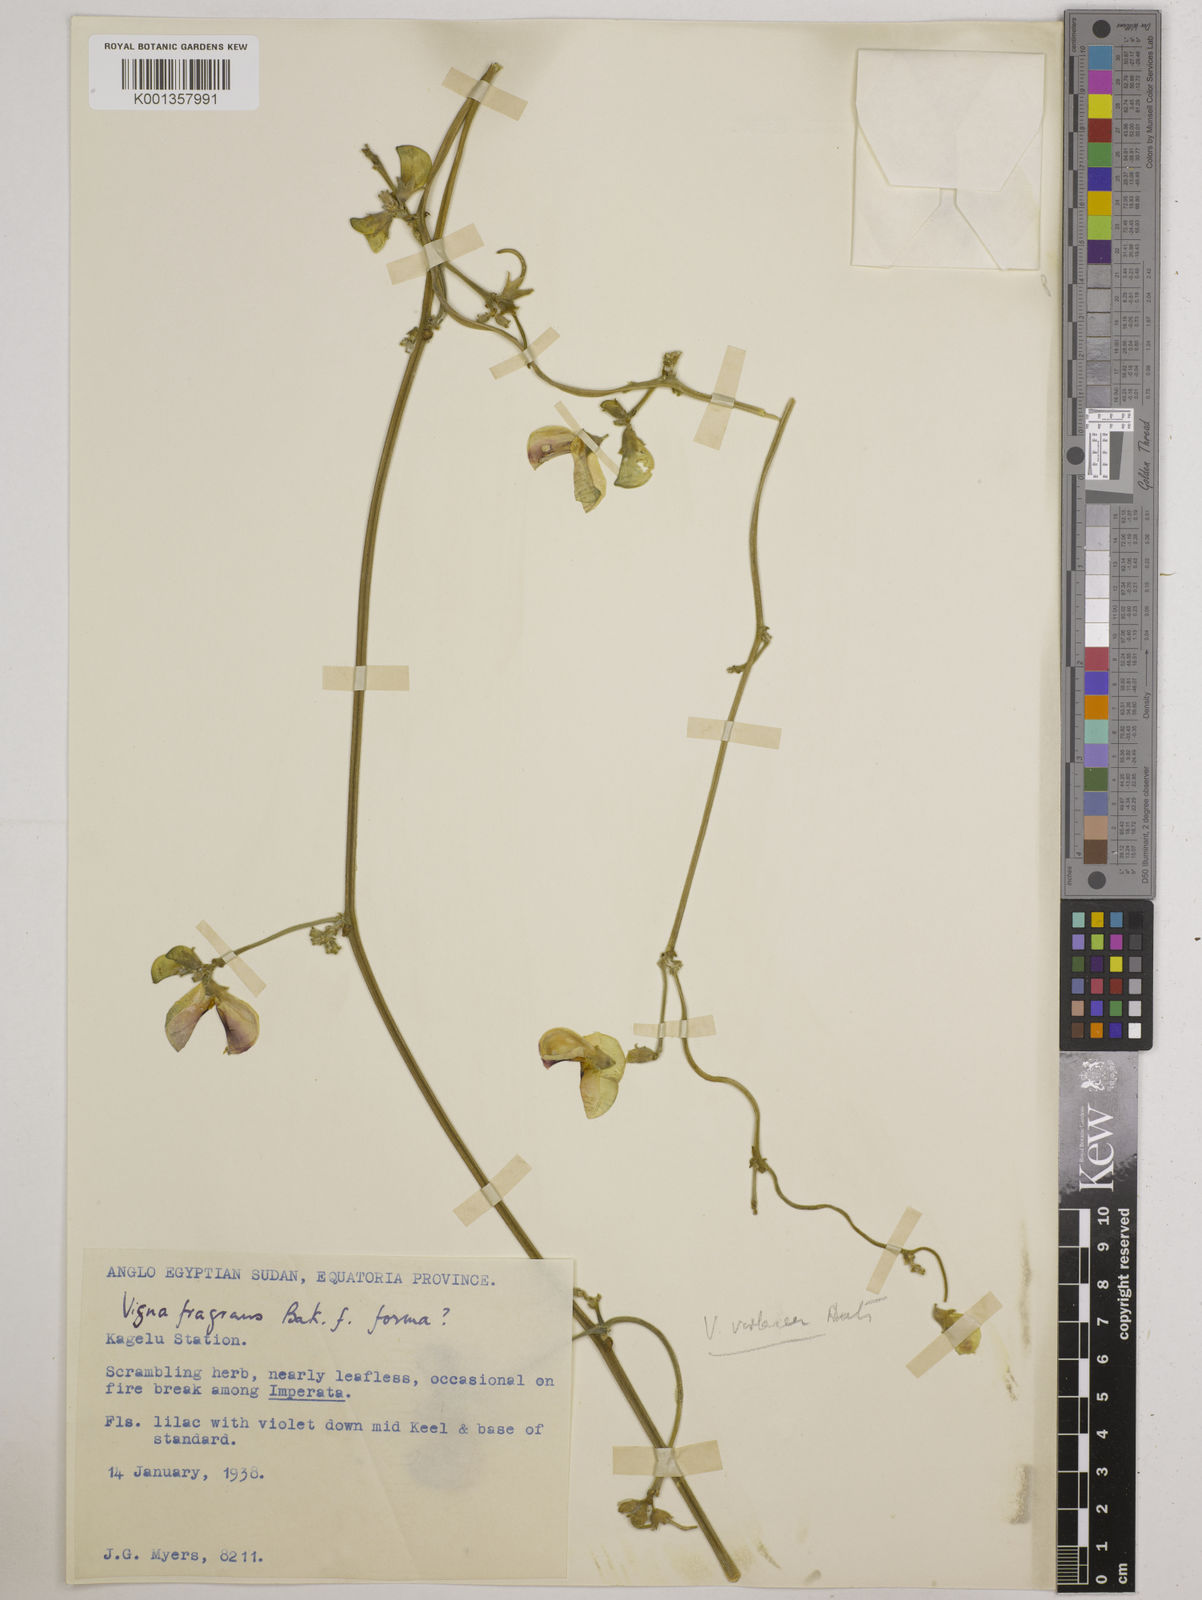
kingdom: Plantae
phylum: Tracheophyta
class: Magnoliopsida
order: Fabales
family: Fabaceae
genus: Vigna
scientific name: Vigna frutescens
